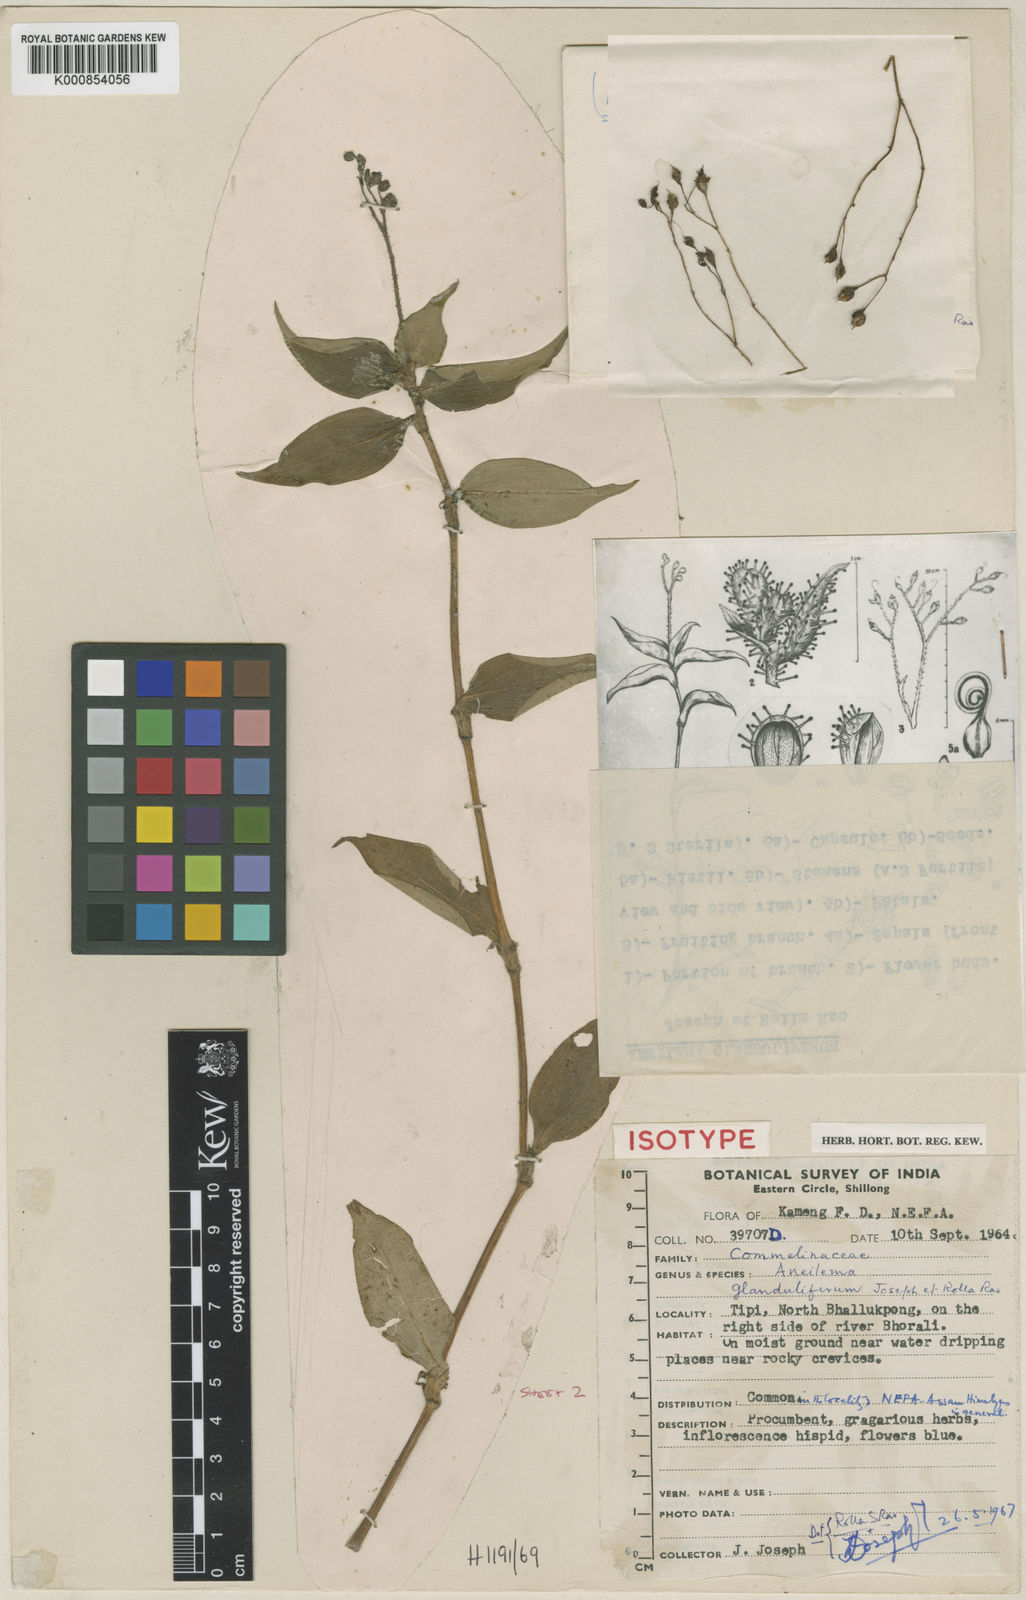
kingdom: Plantae
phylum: Tracheophyta
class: Liliopsida
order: Commelinales
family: Commelinaceae
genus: Murdannia
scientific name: Murdannia
